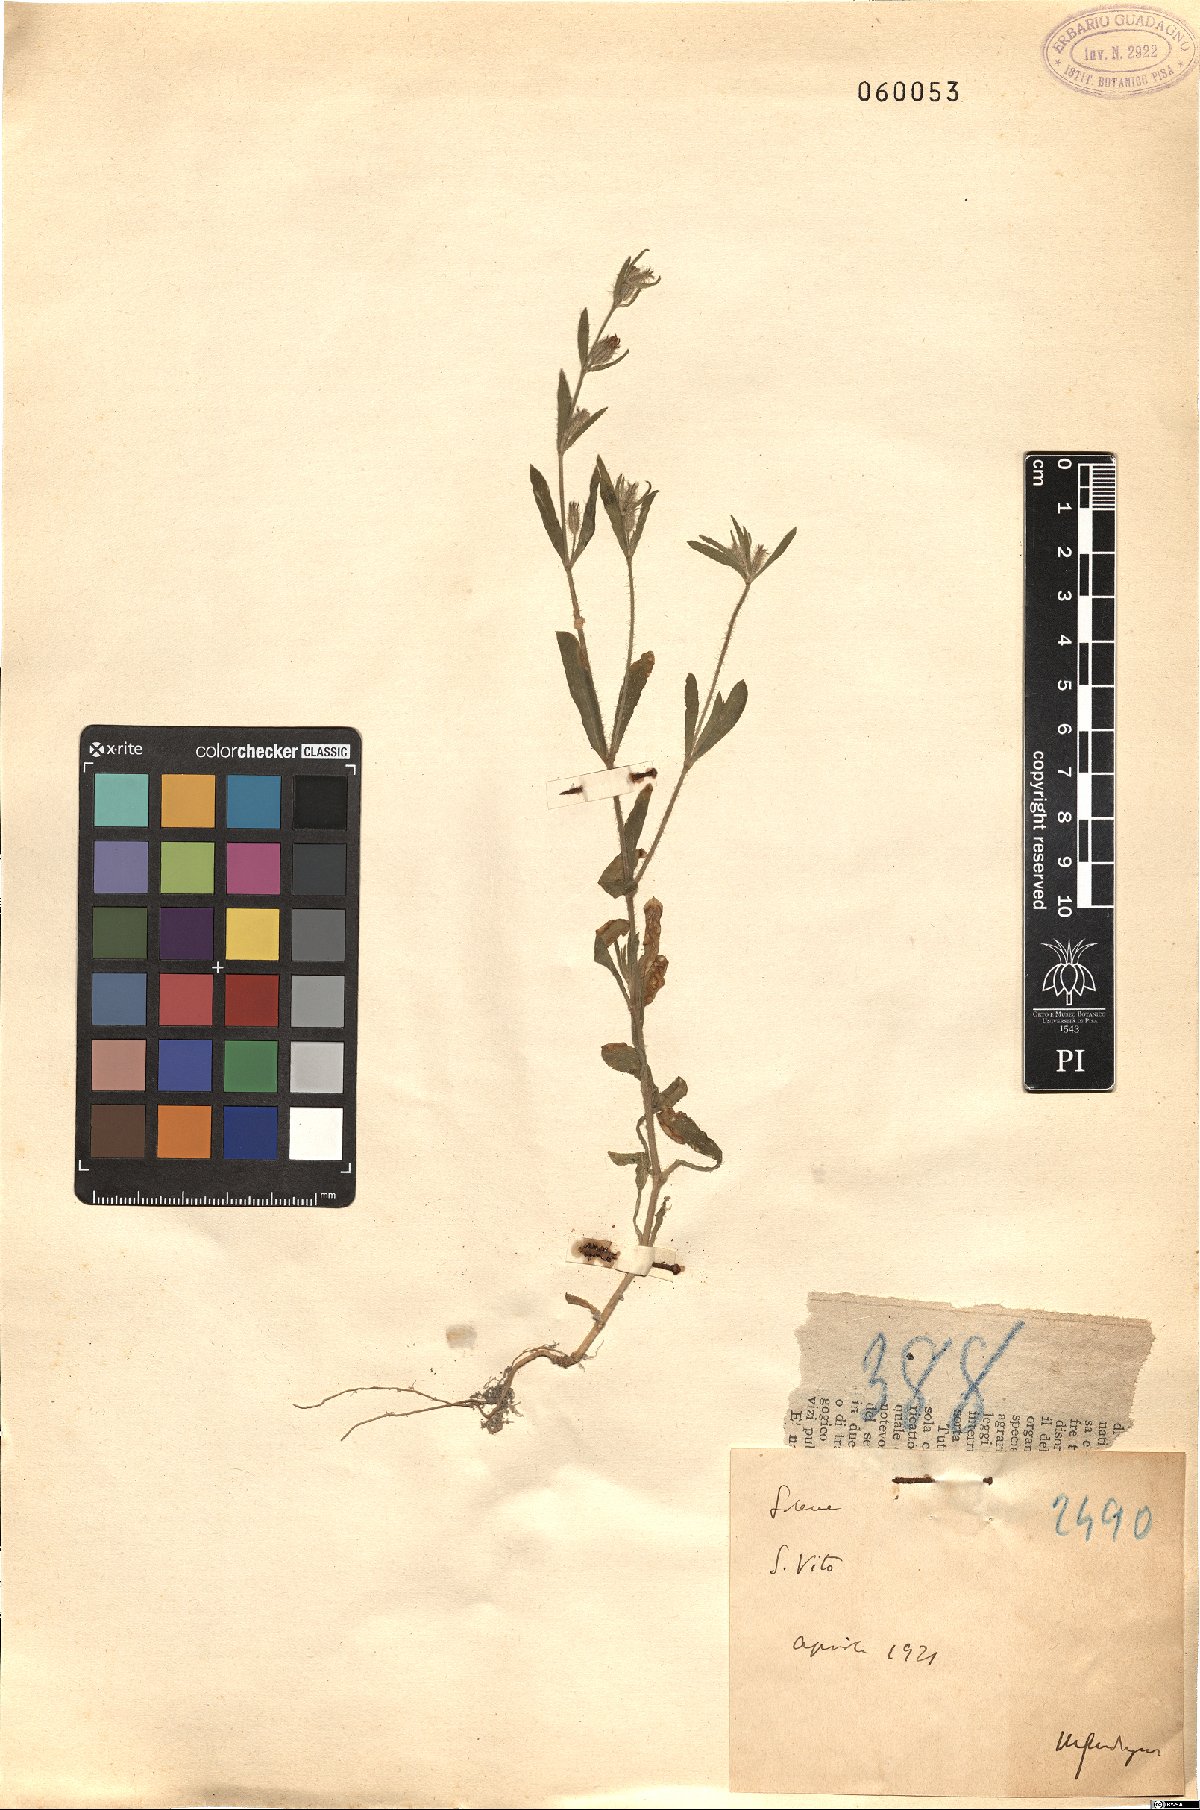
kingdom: Plantae
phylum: Tracheophyta
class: Magnoliopsida
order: Caryophyllales
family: Caryophyllaceae
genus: Silene
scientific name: Silene
